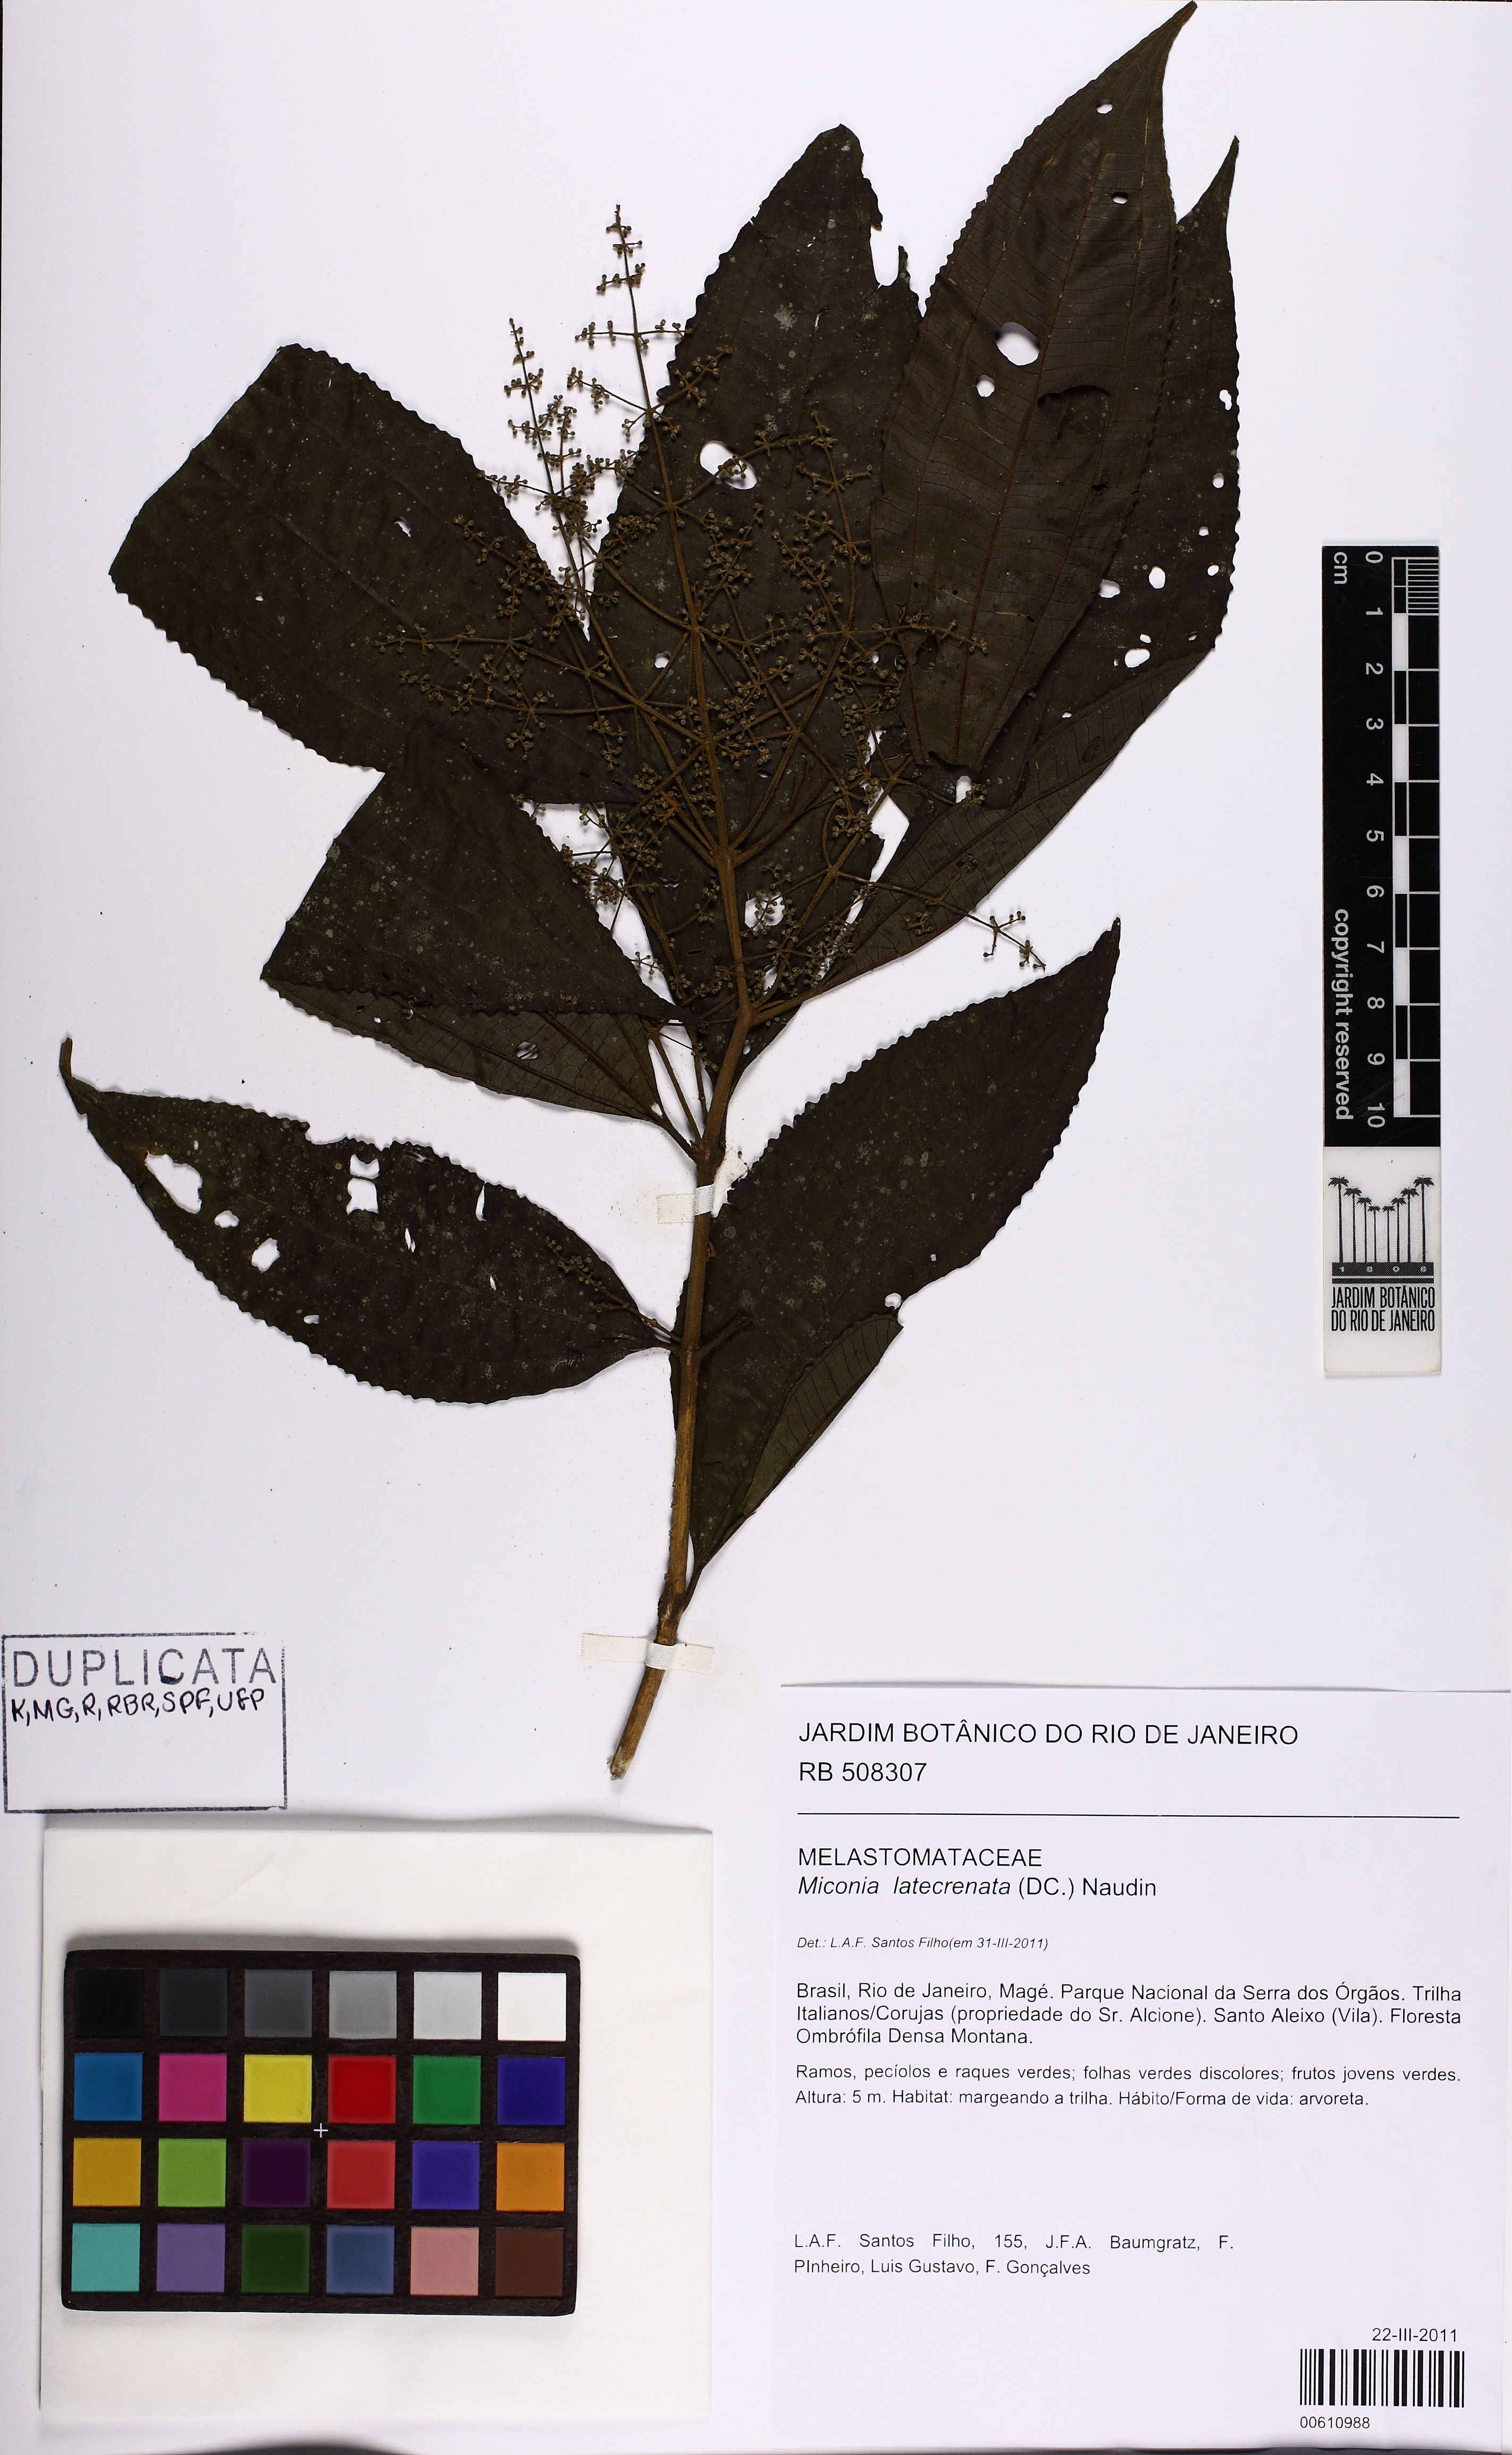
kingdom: Plantae
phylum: Tracheophyta
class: Magnoliopsida
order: Myrtales
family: Melastomataceae
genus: Miconia
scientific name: Miconia latecrenata
